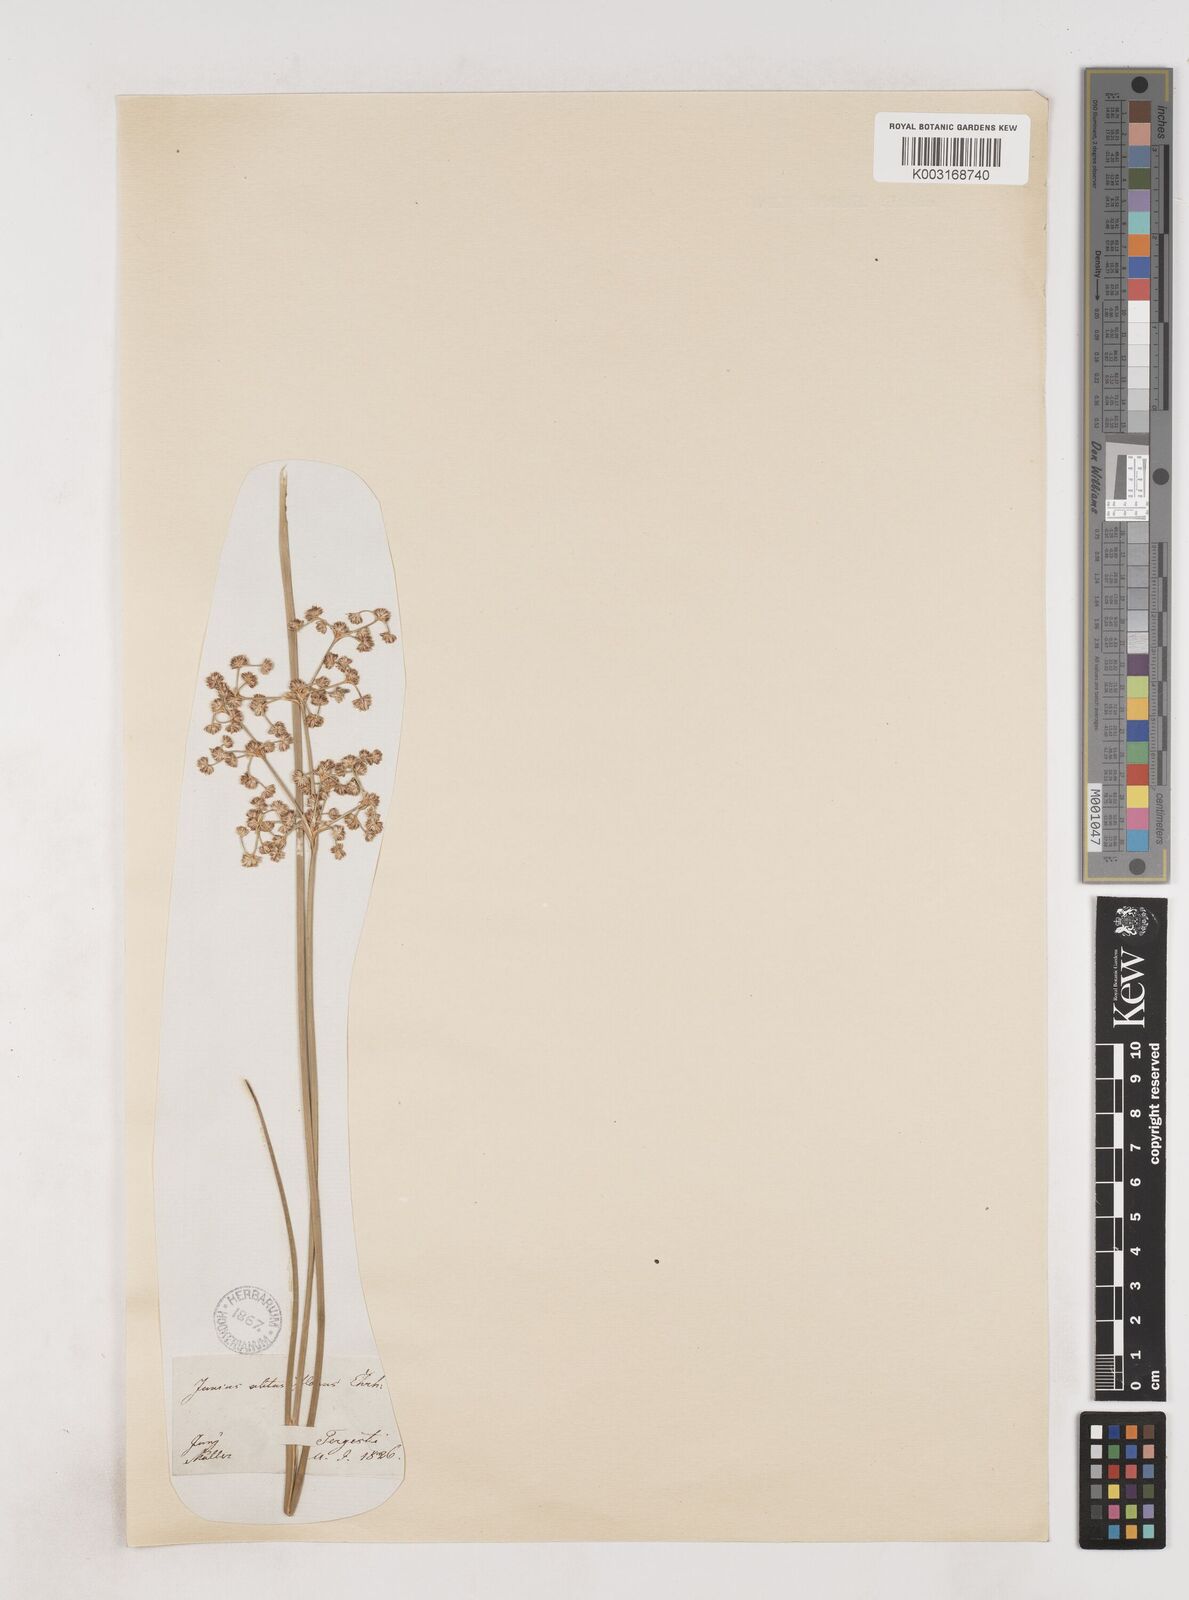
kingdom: Plantae
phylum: Tracheophyta
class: Liliopsida
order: Poales
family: Juncaceae
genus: Juncus
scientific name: Juncus subnodulosus
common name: Blunt-flowered rush
